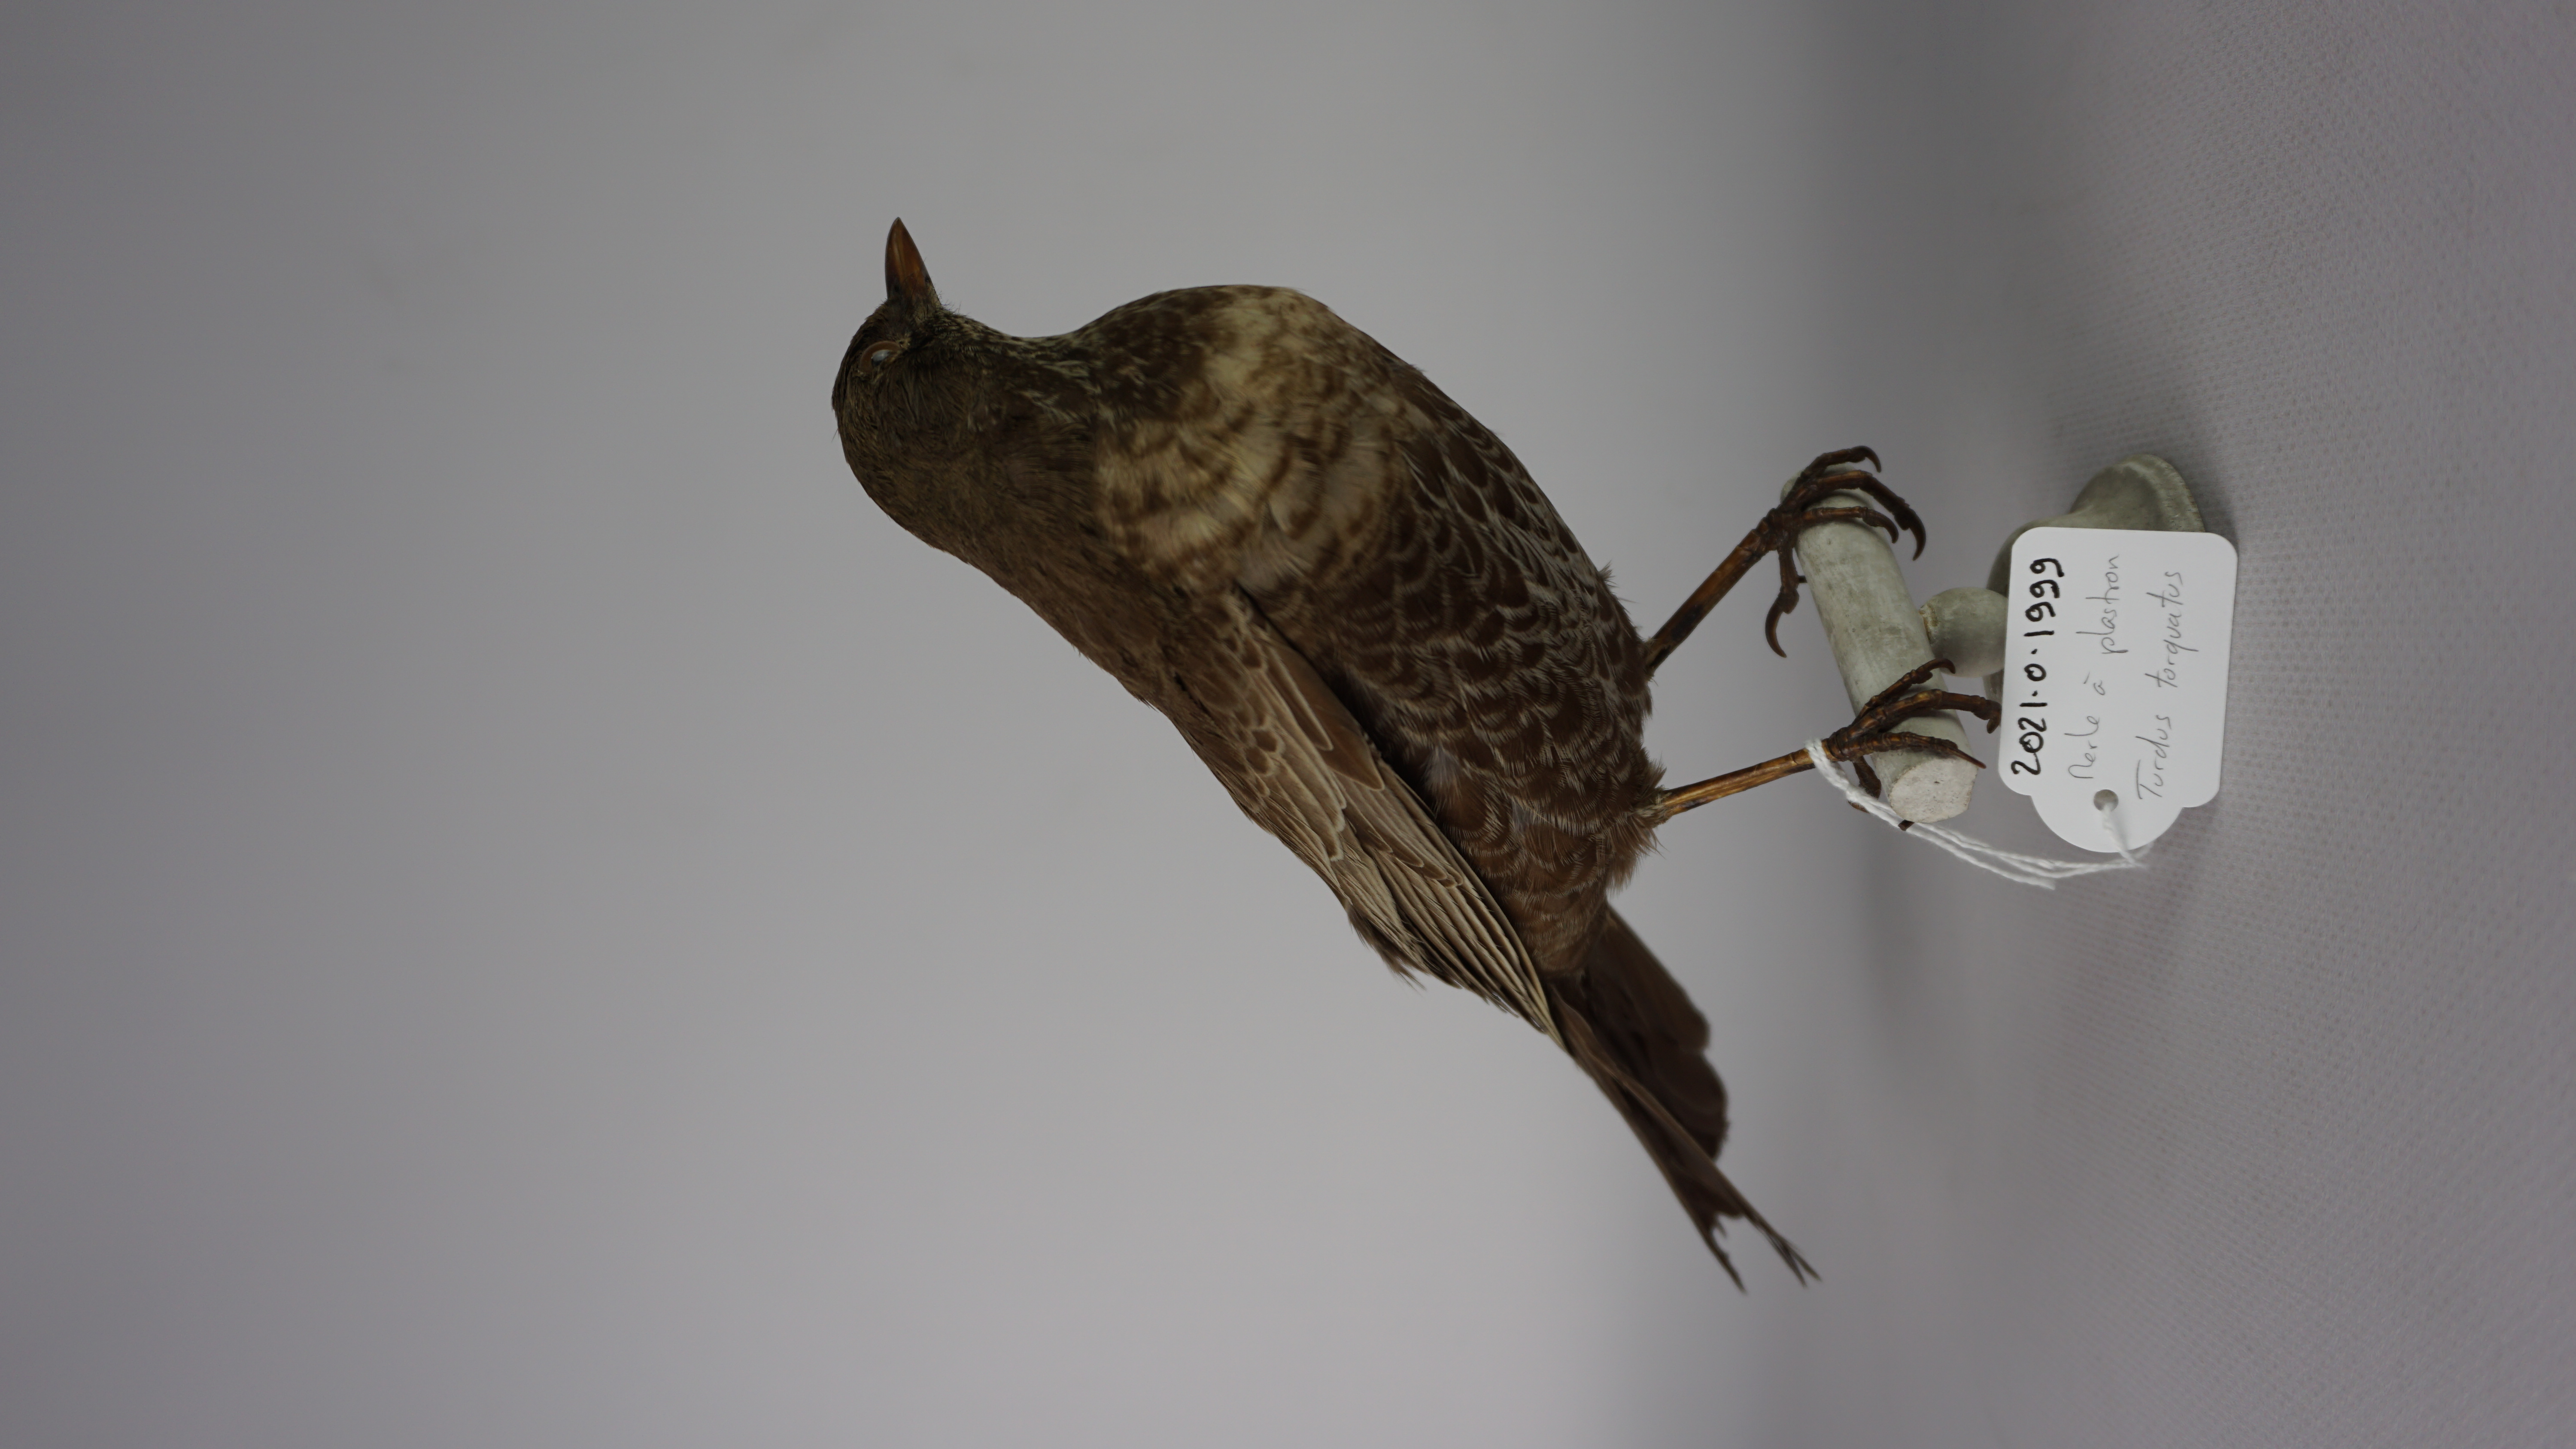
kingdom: Animalia
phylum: Chordata
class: Aves
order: Passeriformes
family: Turdidae
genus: Turdus
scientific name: Turdus torquatus
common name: Ring ouzel
